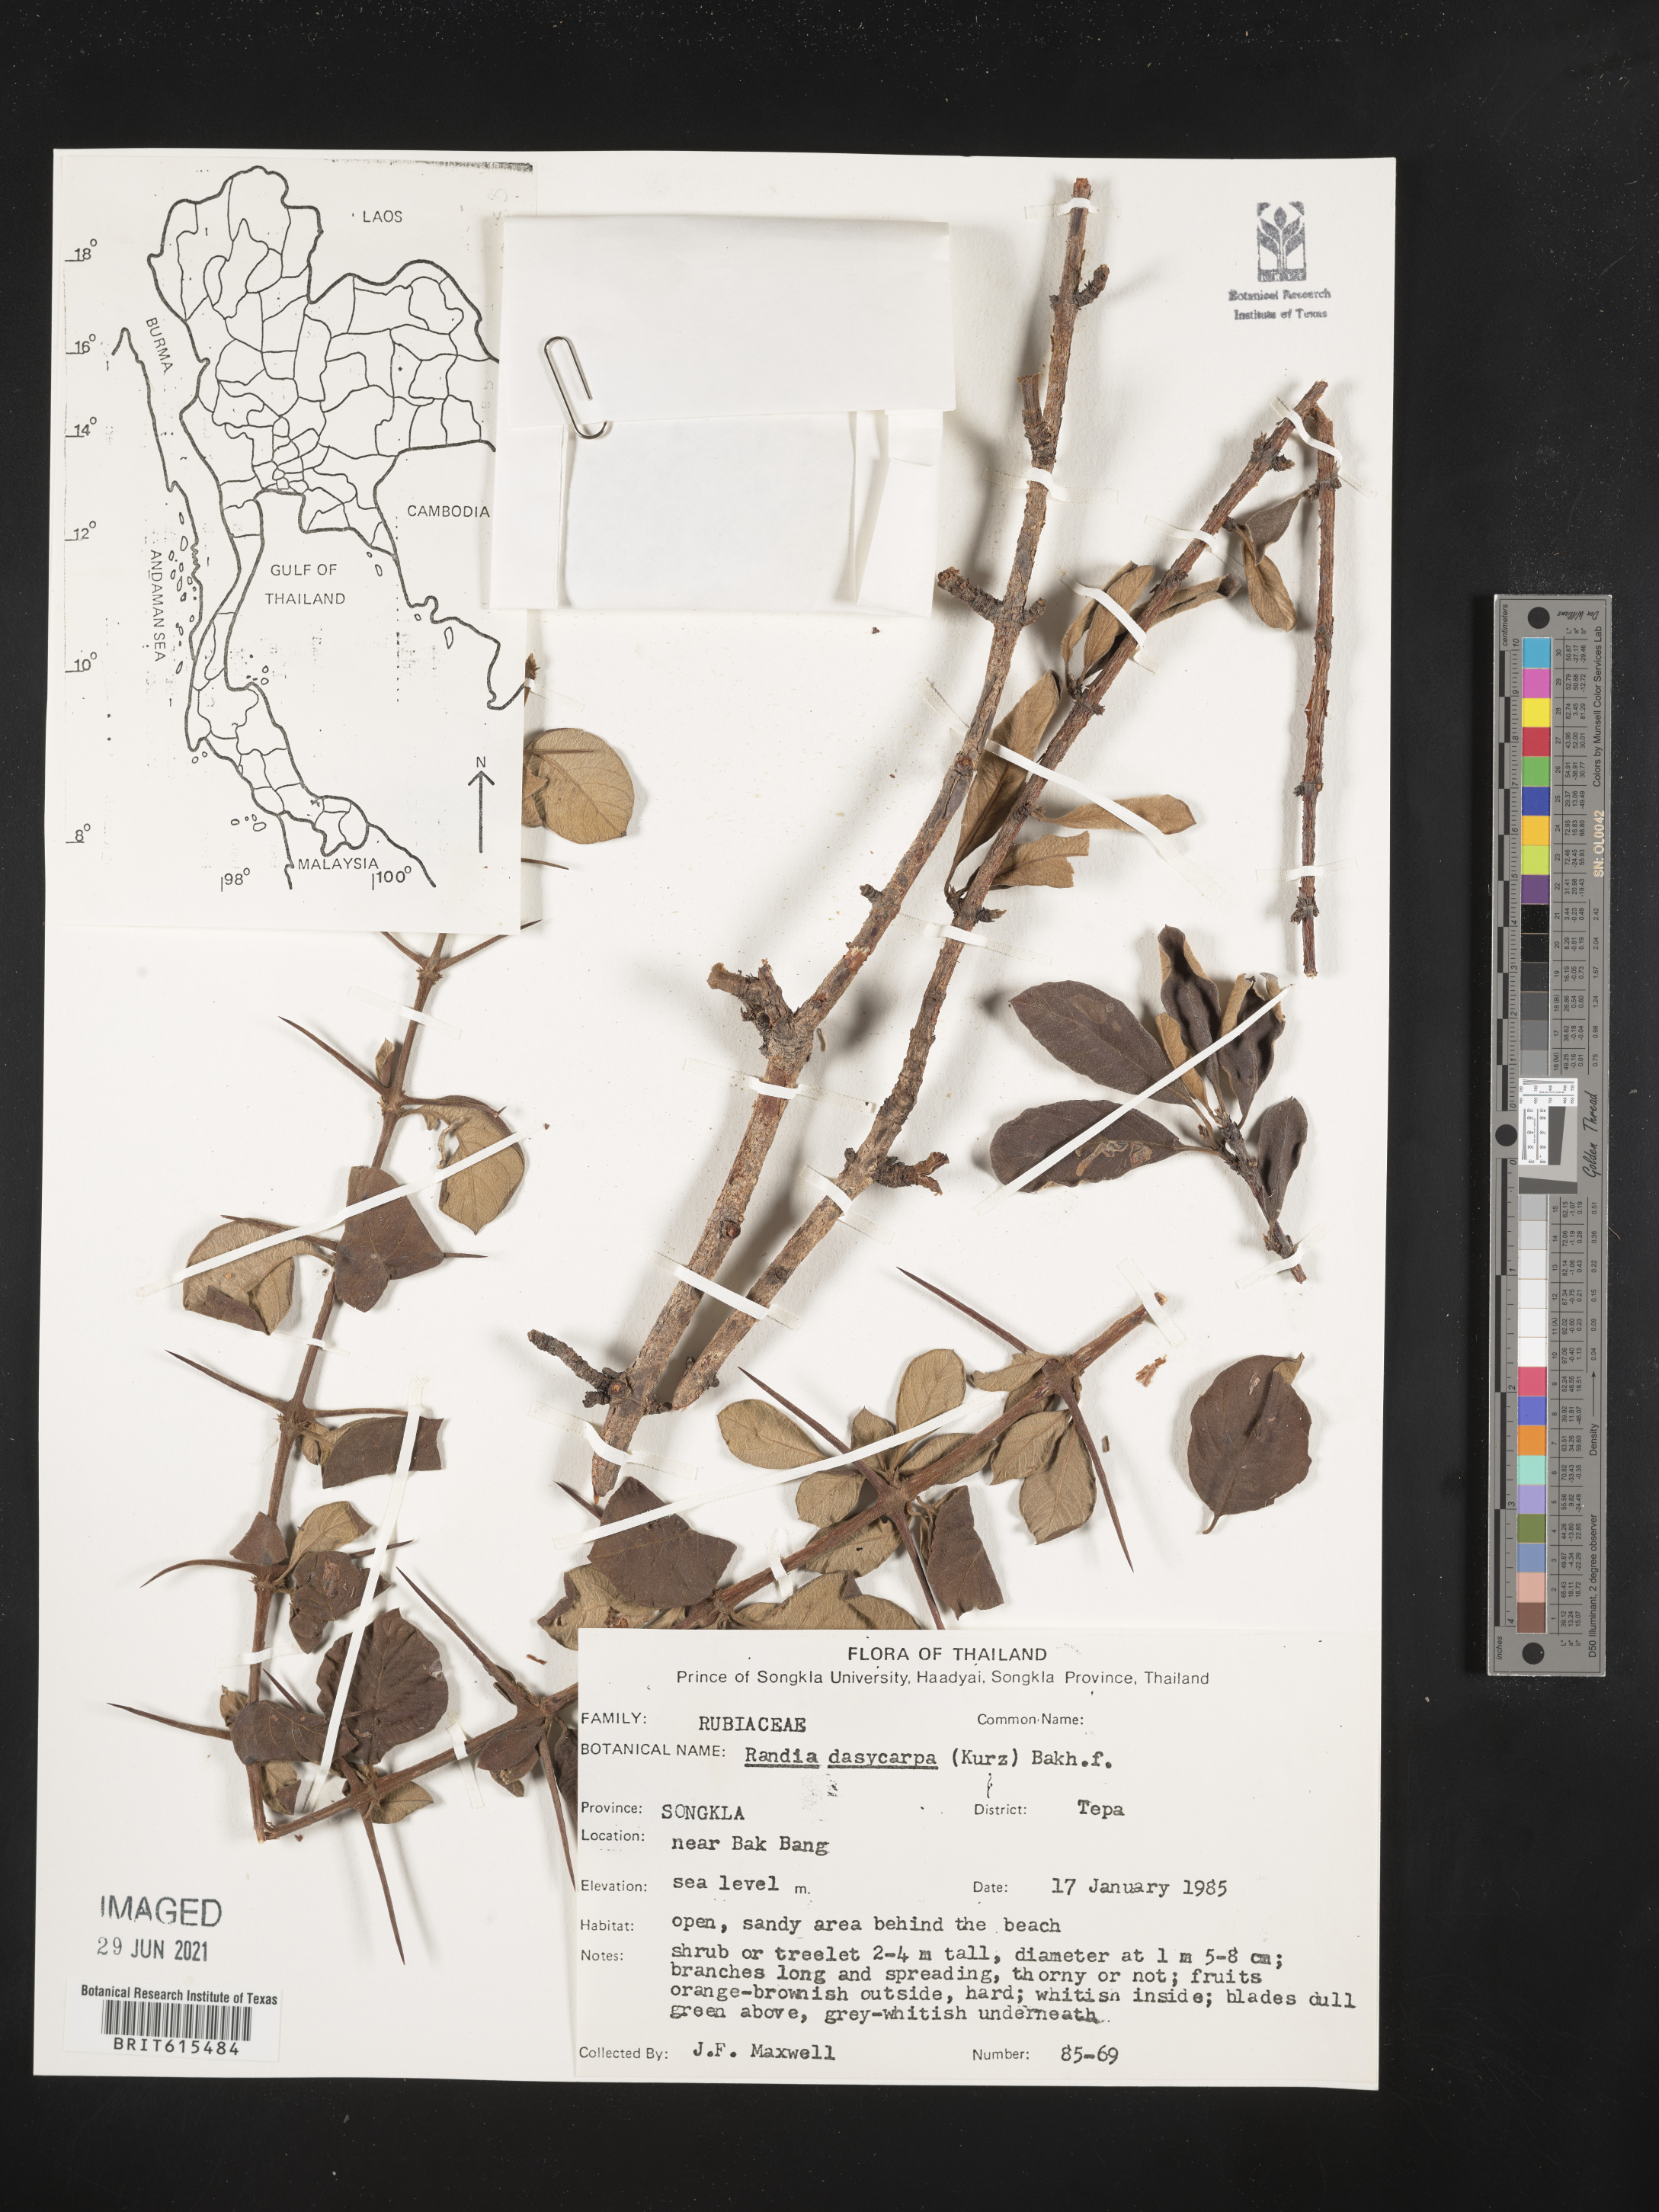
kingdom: Plantae
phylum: Tracheophyta
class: Magnoliopsida
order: Gentianales
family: Rubiaceae
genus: Catunaregam
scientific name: Catunaregam tomentosa
